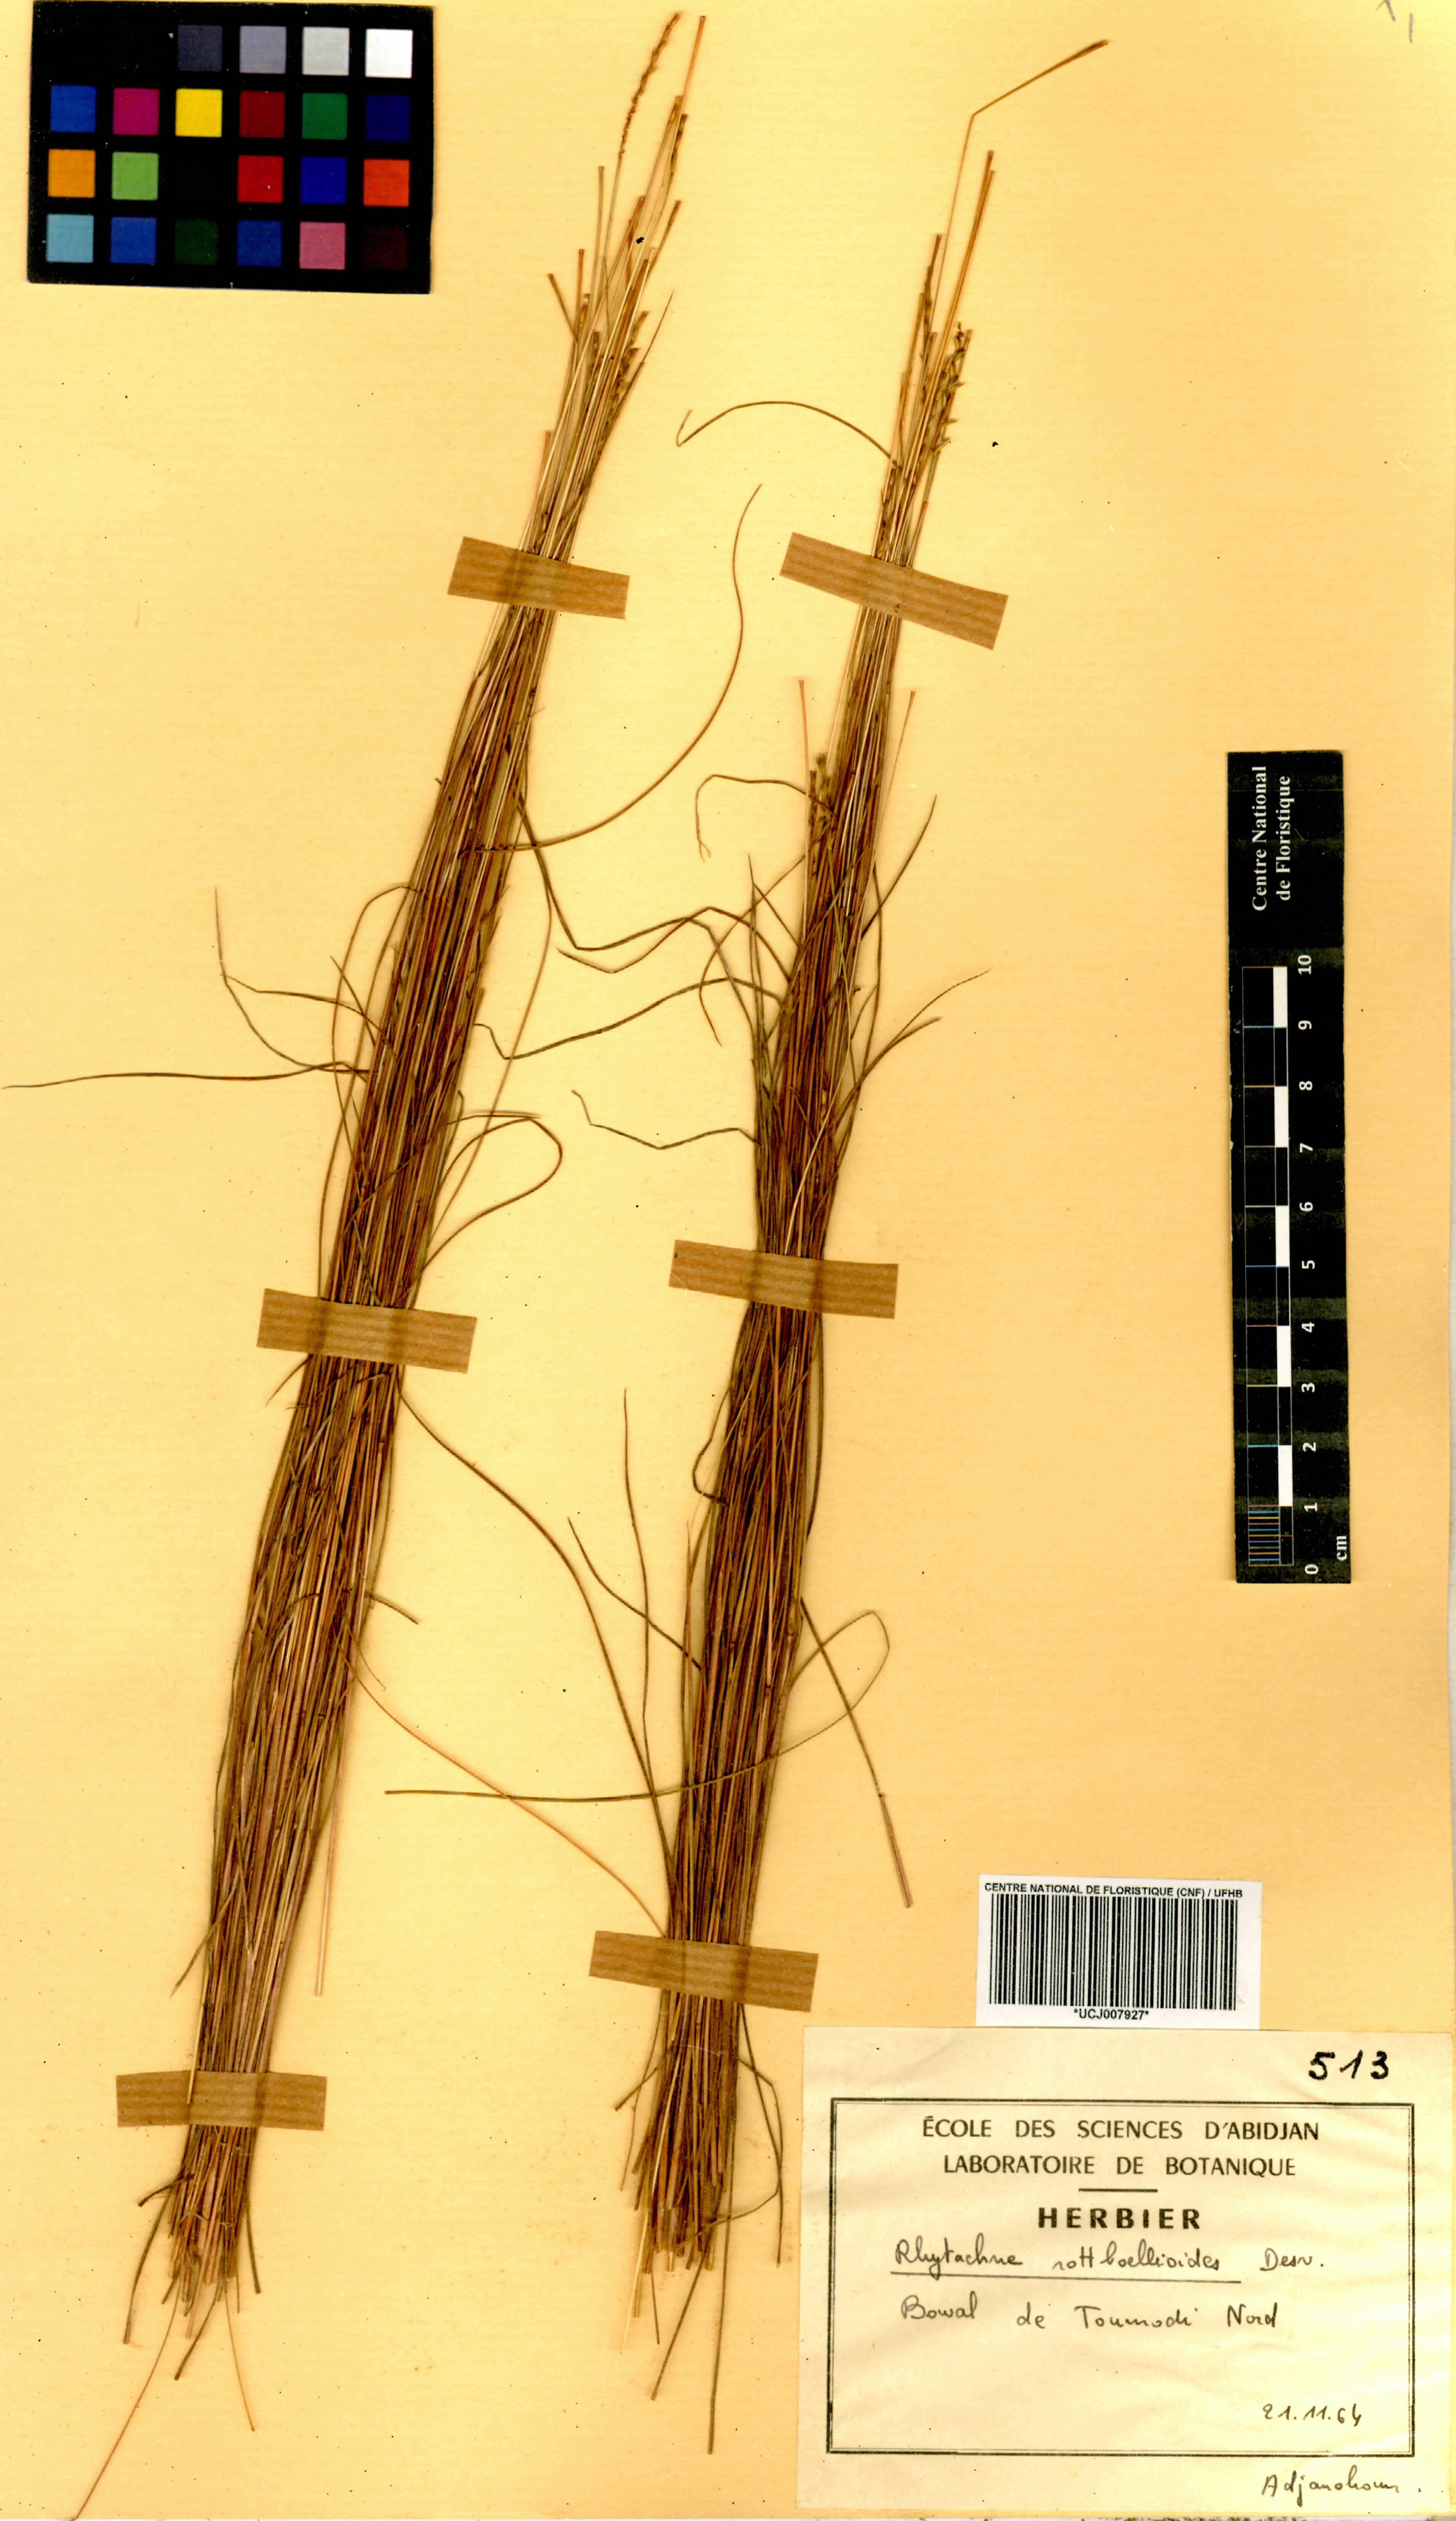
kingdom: Plantae
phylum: Tracheophyta
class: Liliopsida
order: Poales
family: Poaceae
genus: Rhytachne
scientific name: Rhytachne rottboellioides
